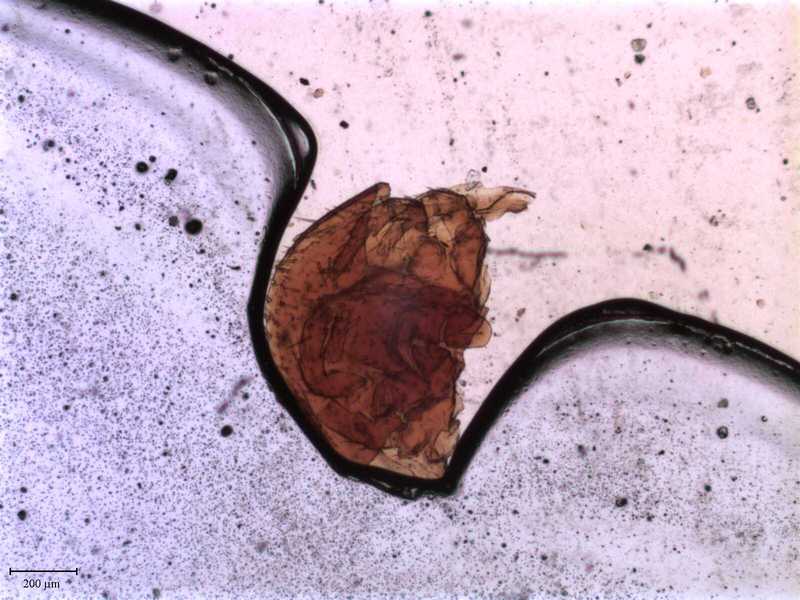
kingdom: Animalia
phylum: Arthropoda
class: Arachnida
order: Mesostigmata
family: Antennophoridae
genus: Celaenosthanus
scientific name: Celaenosthanus
